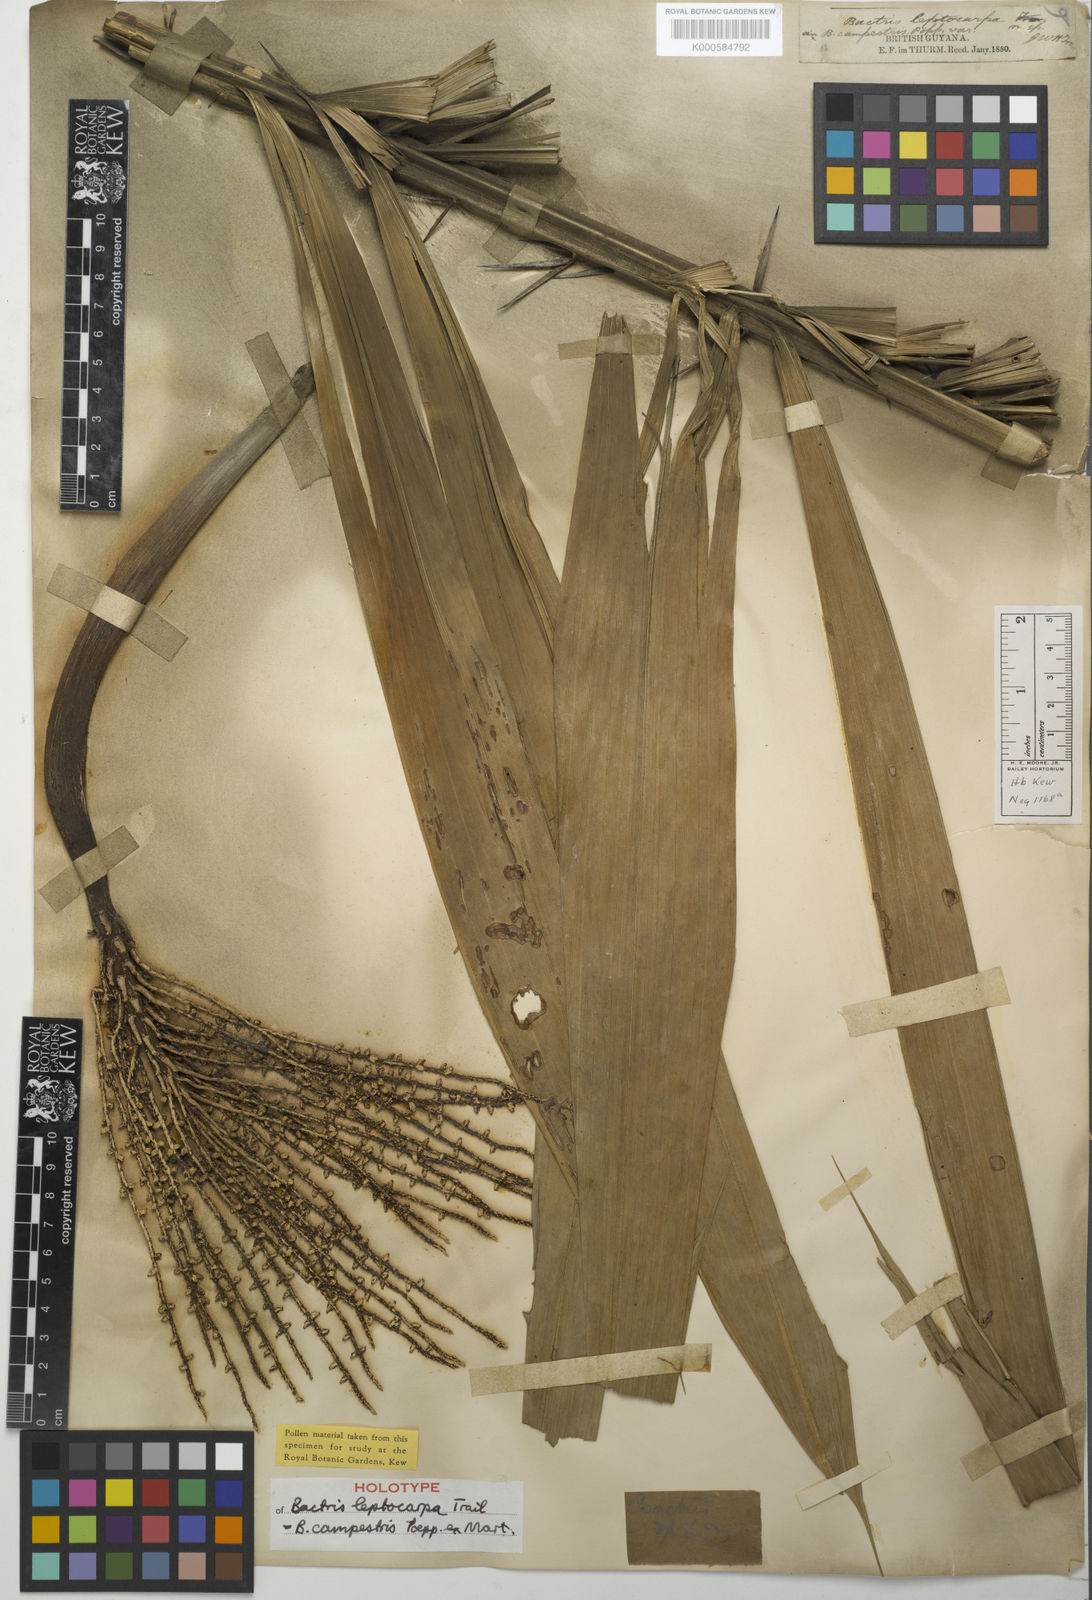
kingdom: Plantae
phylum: Tracheophyta
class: Liliopsida
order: Arecales
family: Arecaceae
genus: Bactris
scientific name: Bactris campestris
